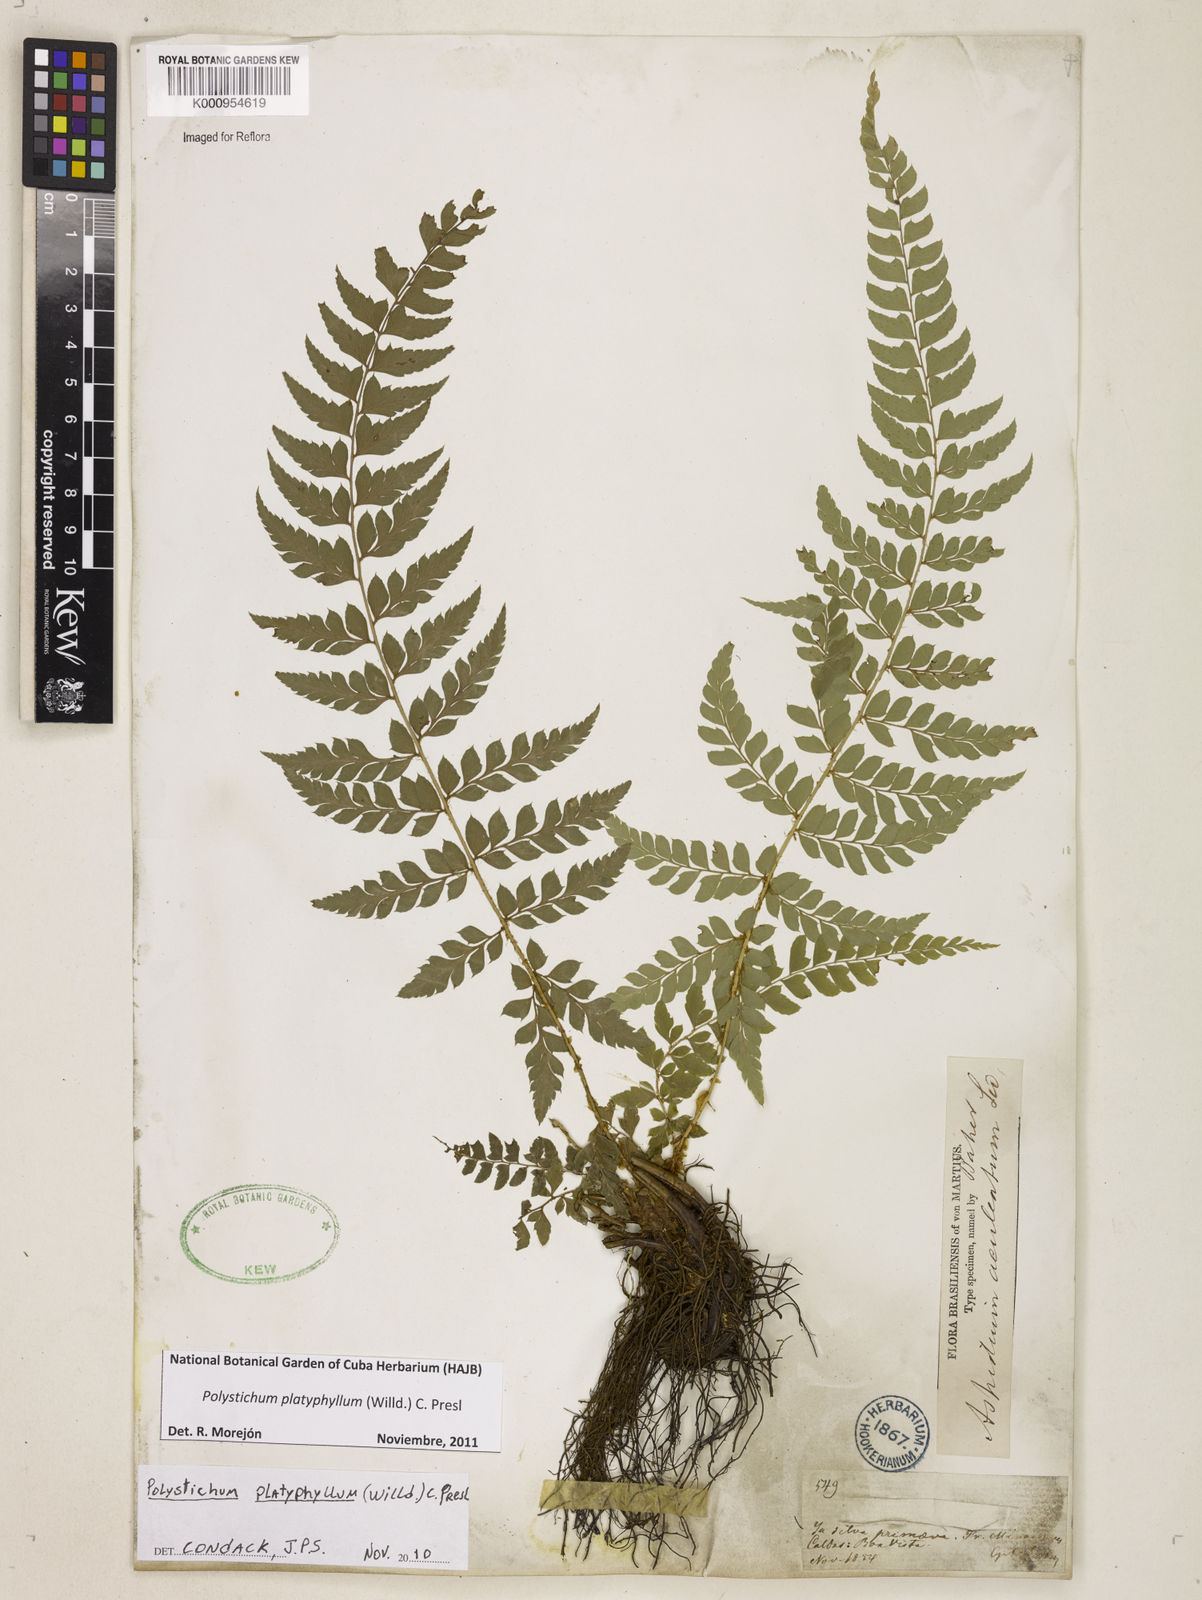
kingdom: Plantae
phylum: Tracheophyta
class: Polypodiopsida
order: Polypodiales
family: Dryopteridaceae
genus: Polystichum
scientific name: Polystichum platyphyllum
